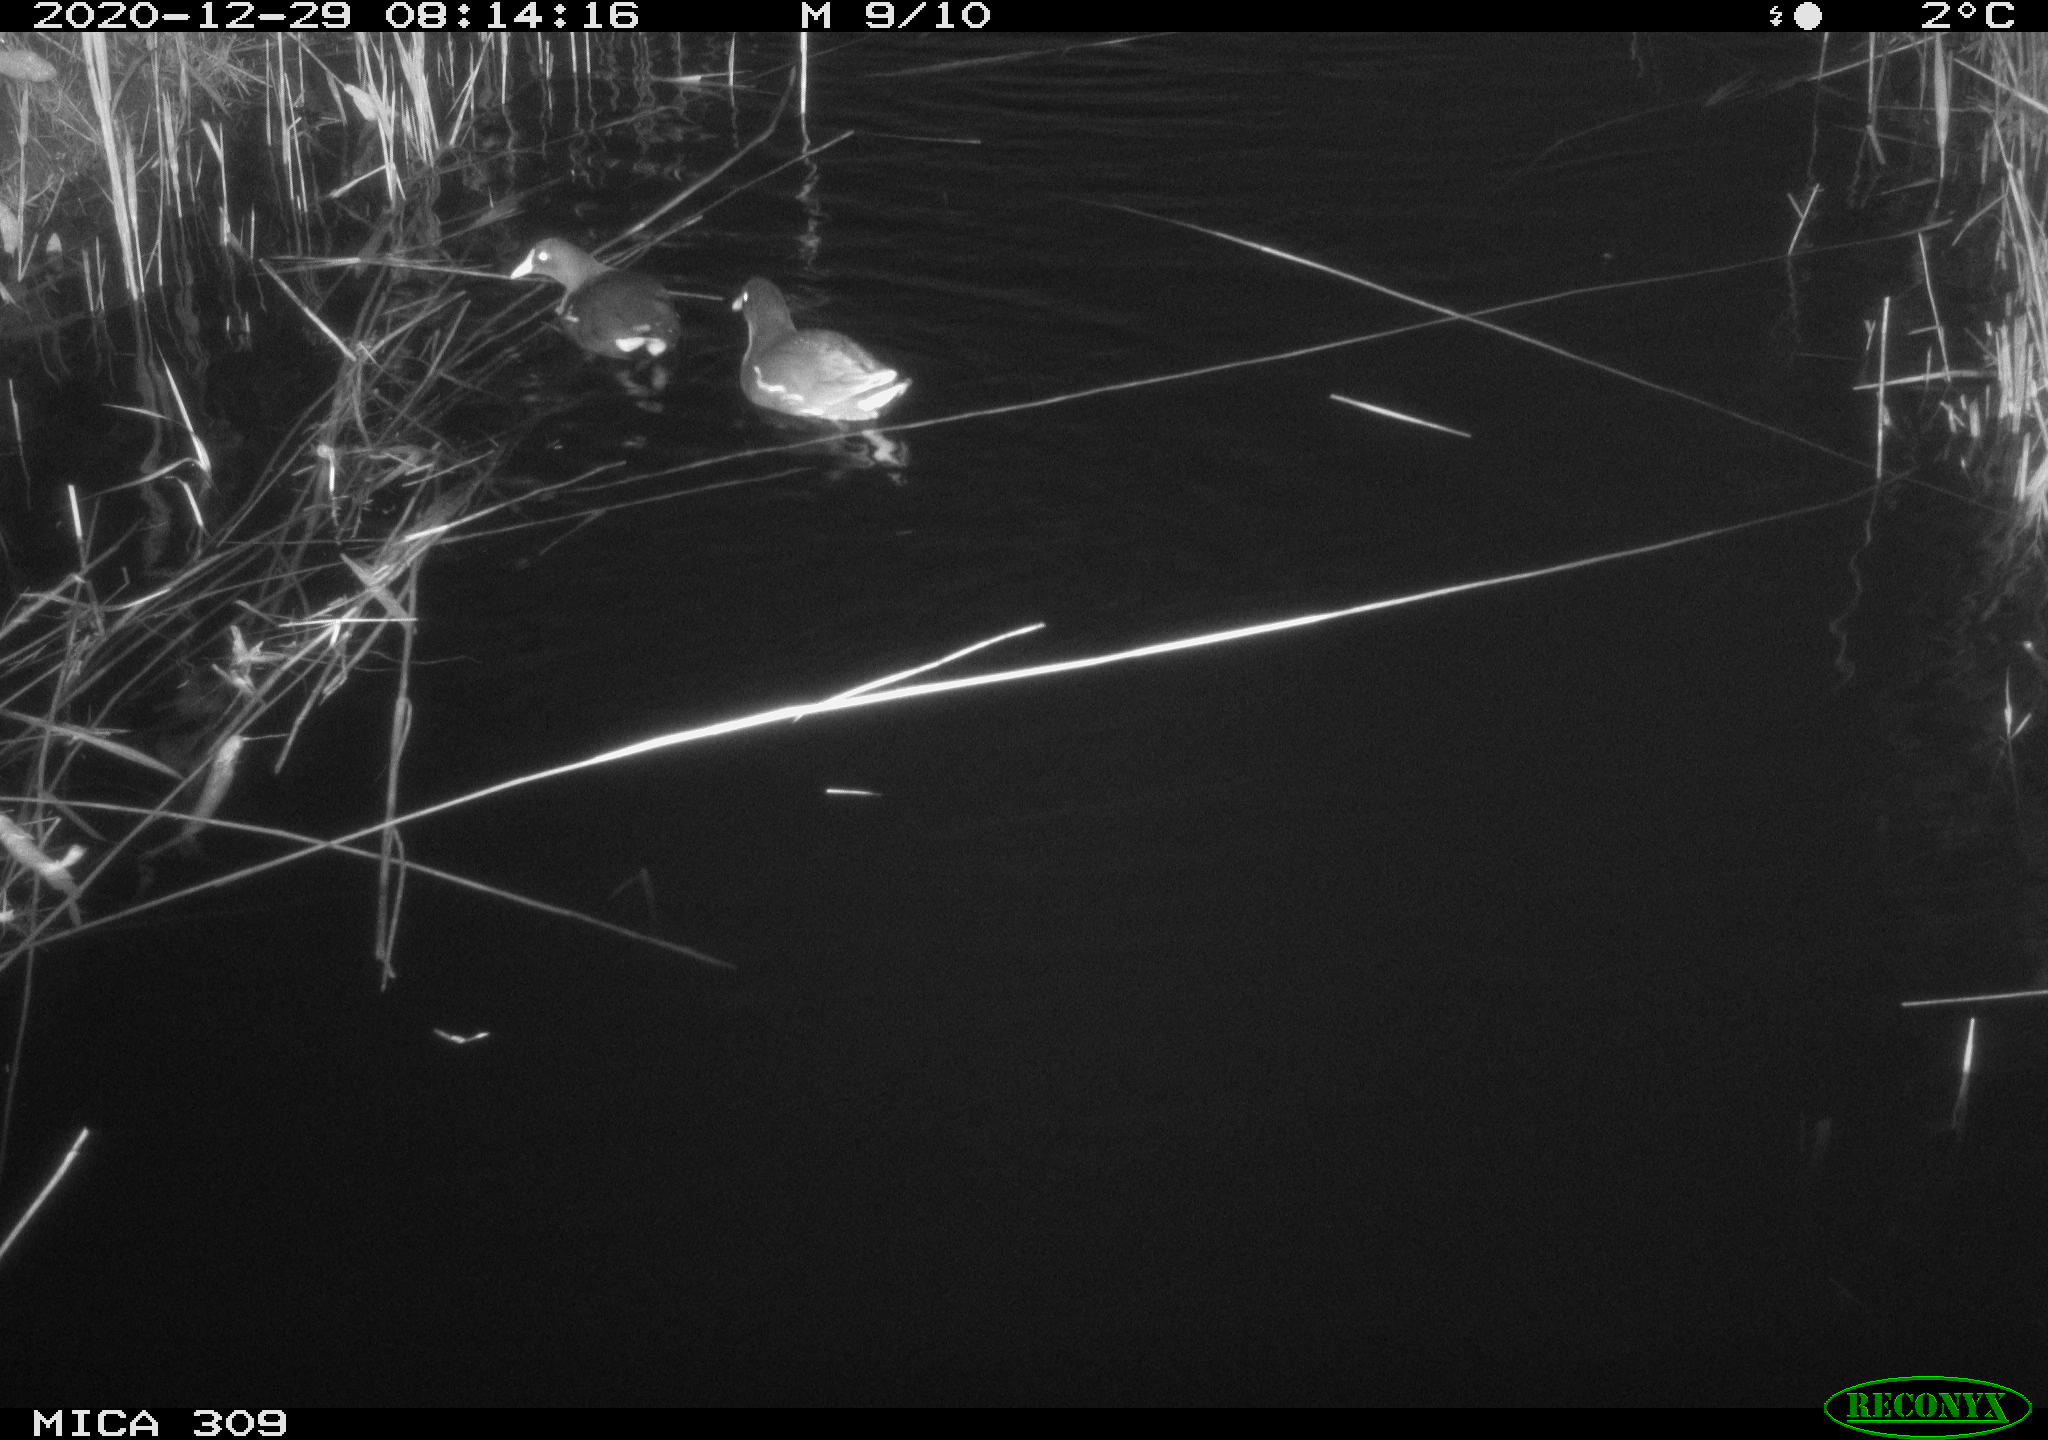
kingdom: Animalia
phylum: Chordata
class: Aves
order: Gruiformes
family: Rallidae
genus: Gallinula
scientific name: Gallinula chloropus
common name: Common moorhen
